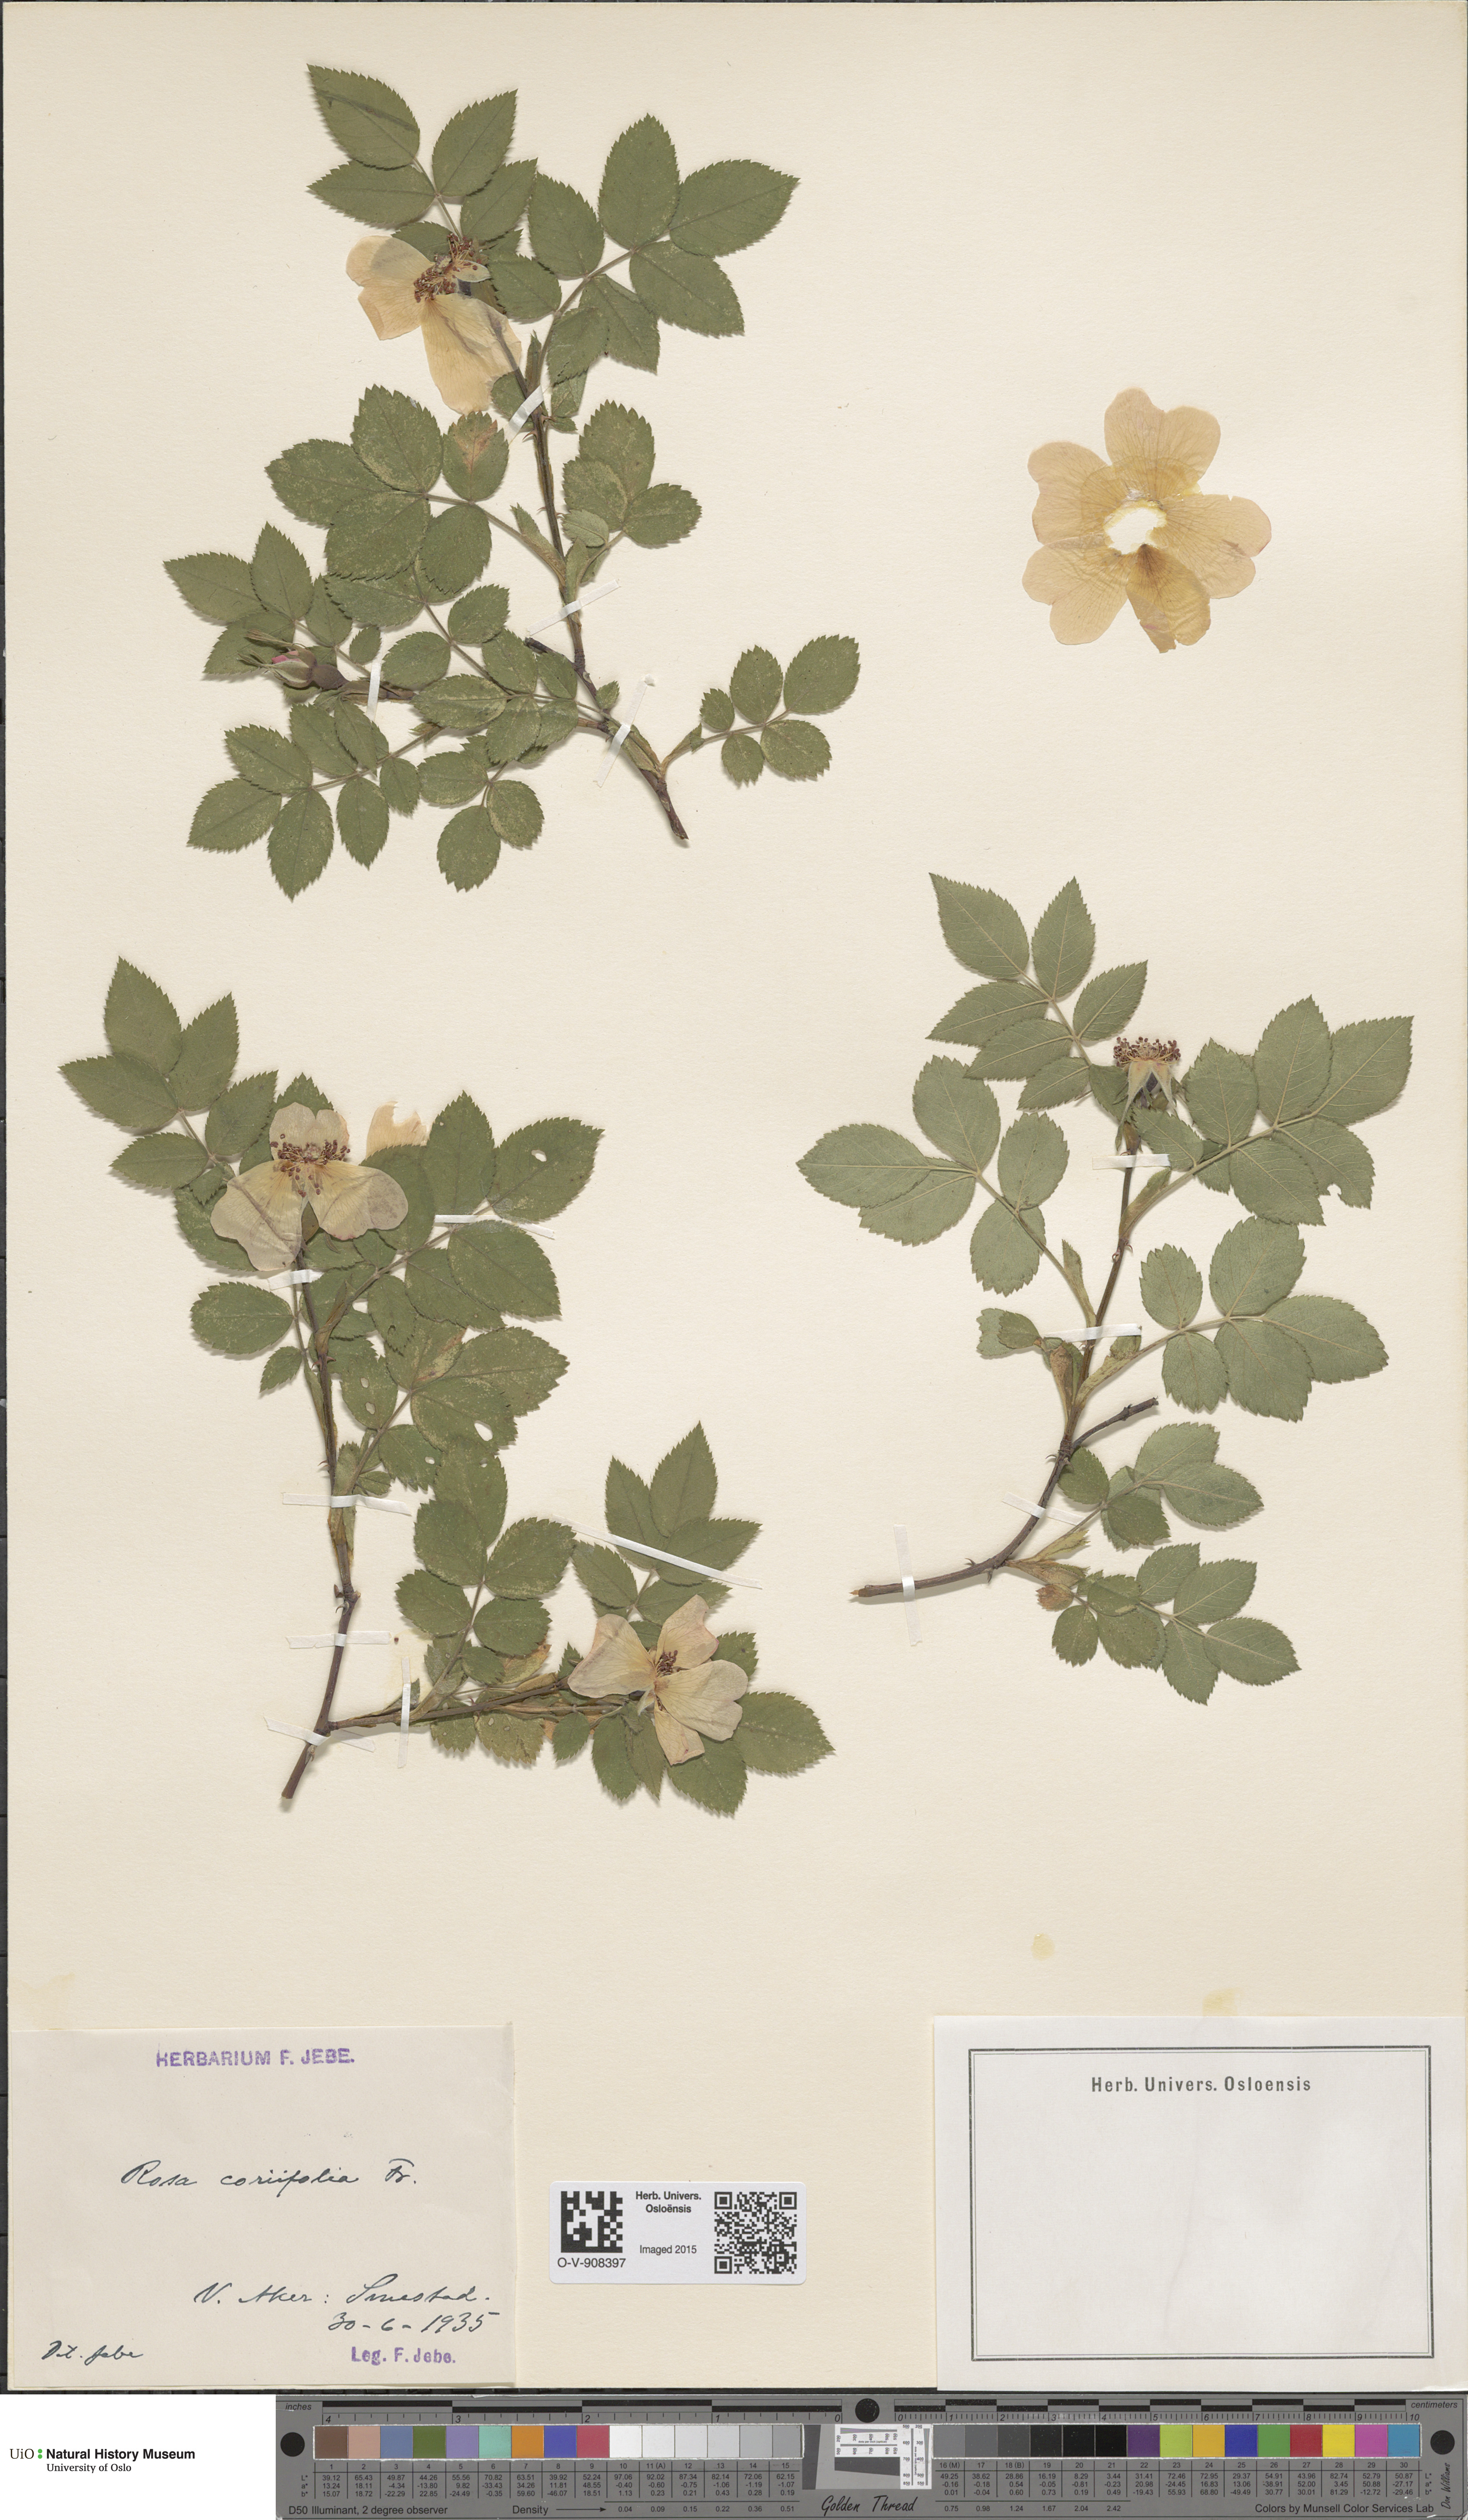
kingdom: Plantae
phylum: Tracheophyta
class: Magnoliopsida
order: Rosales
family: Rosaceae
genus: Rosa
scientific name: Rosa caesia
